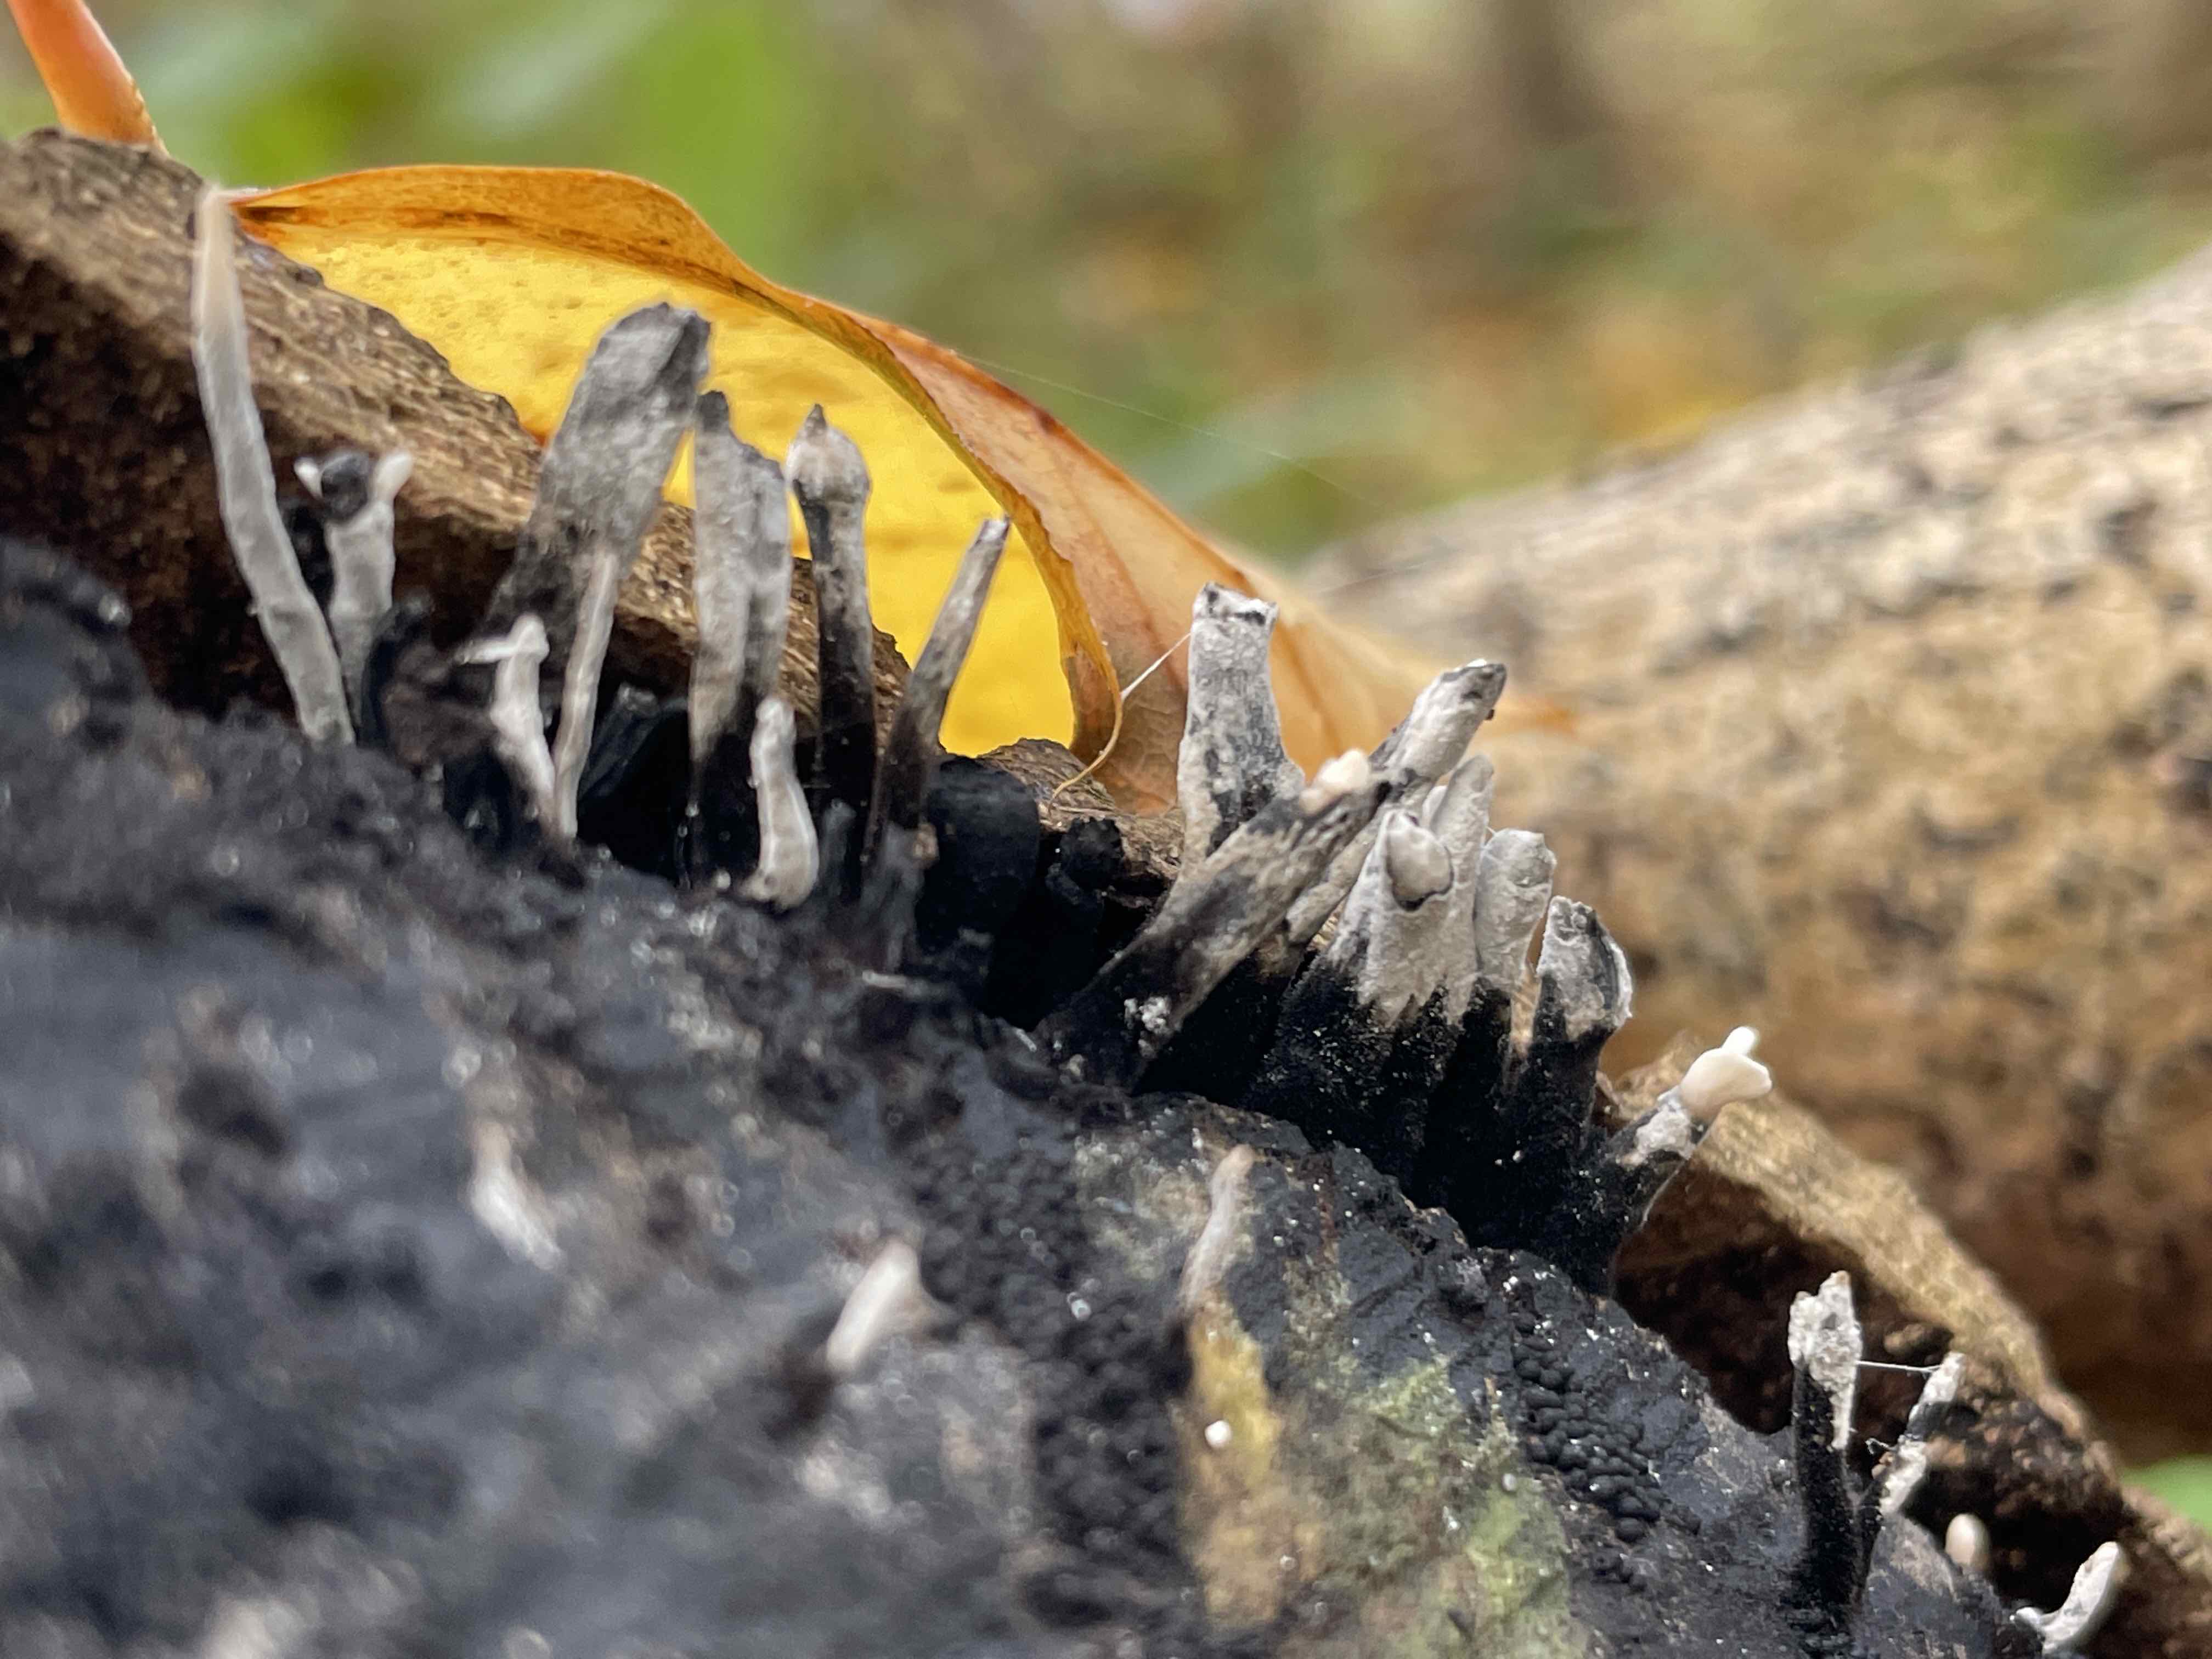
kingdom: Fungi
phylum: Ascomycota
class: Sordariomycetes
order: Xylariales
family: Xylariaceae
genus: Xylaria
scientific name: Xylaria hypoxylon
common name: grenet stødsvamp
